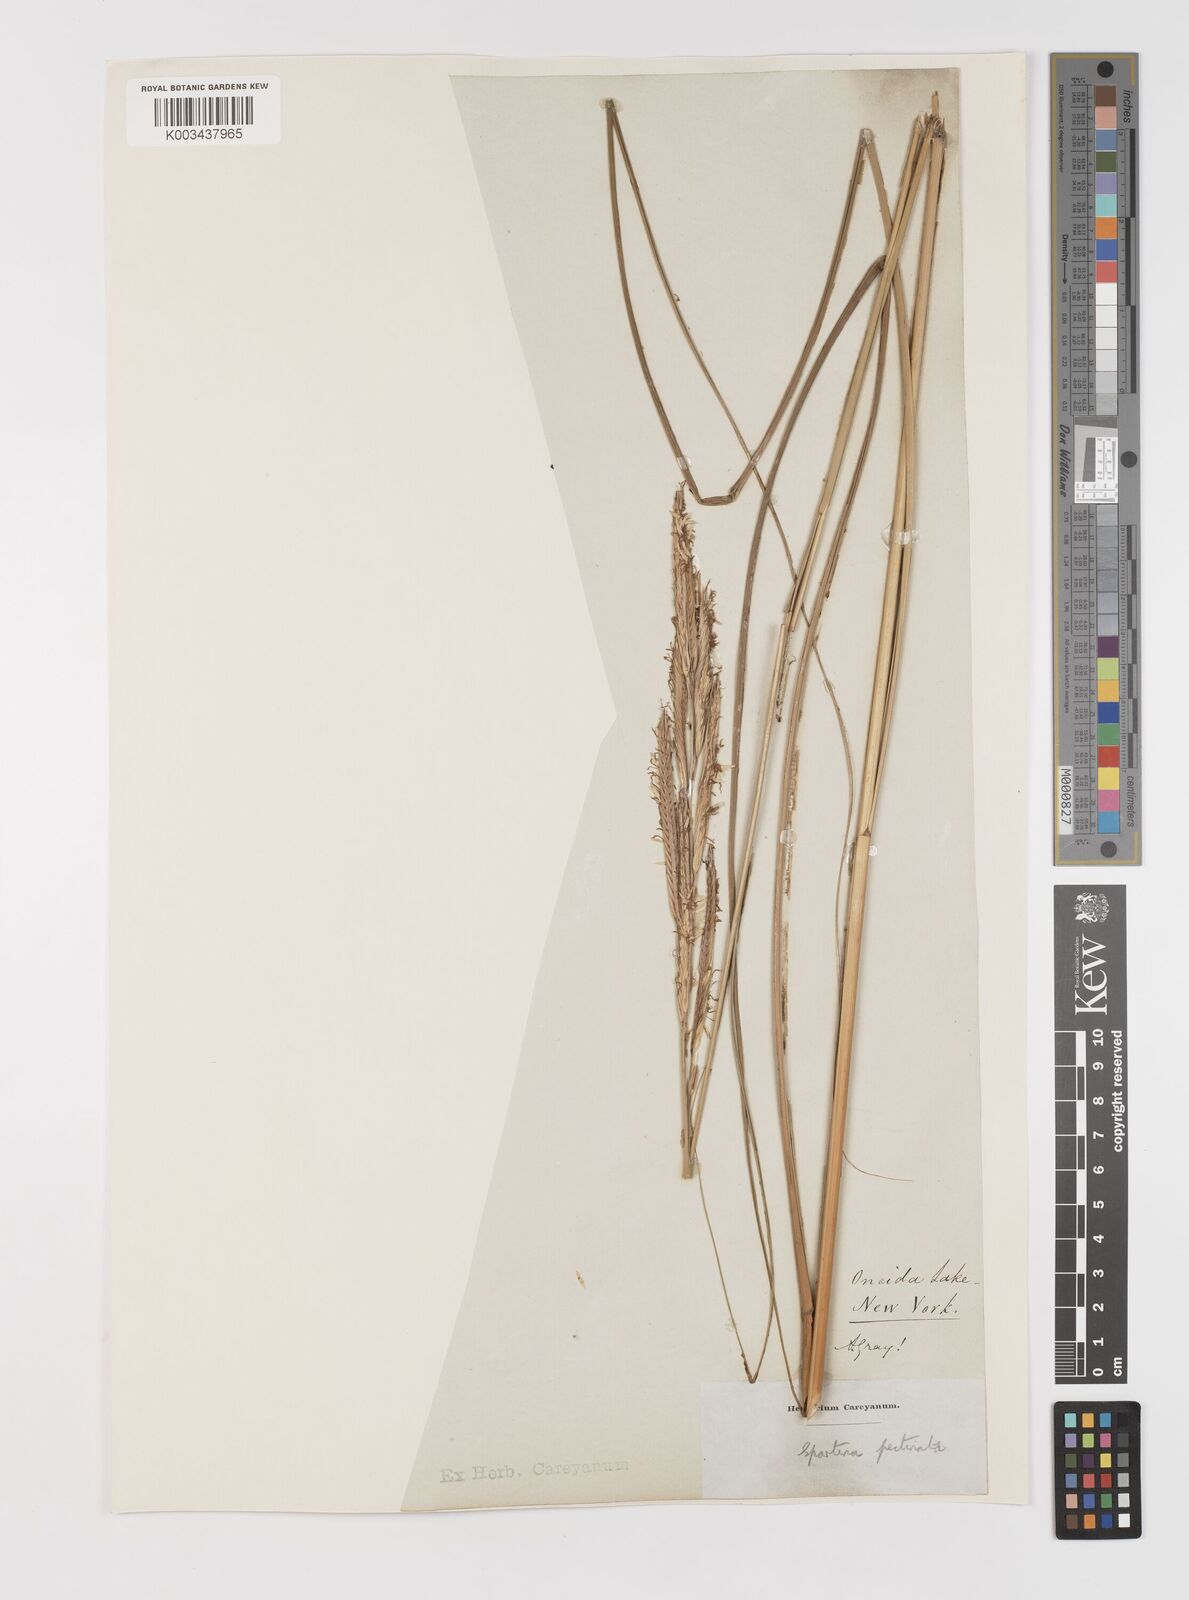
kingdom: Plantae
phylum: Tracheophyta
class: Liliopsida
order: Poales
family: Poaceae
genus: Sporobolus
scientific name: Sporobolus michauxianus
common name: Freshwater cordgrass
